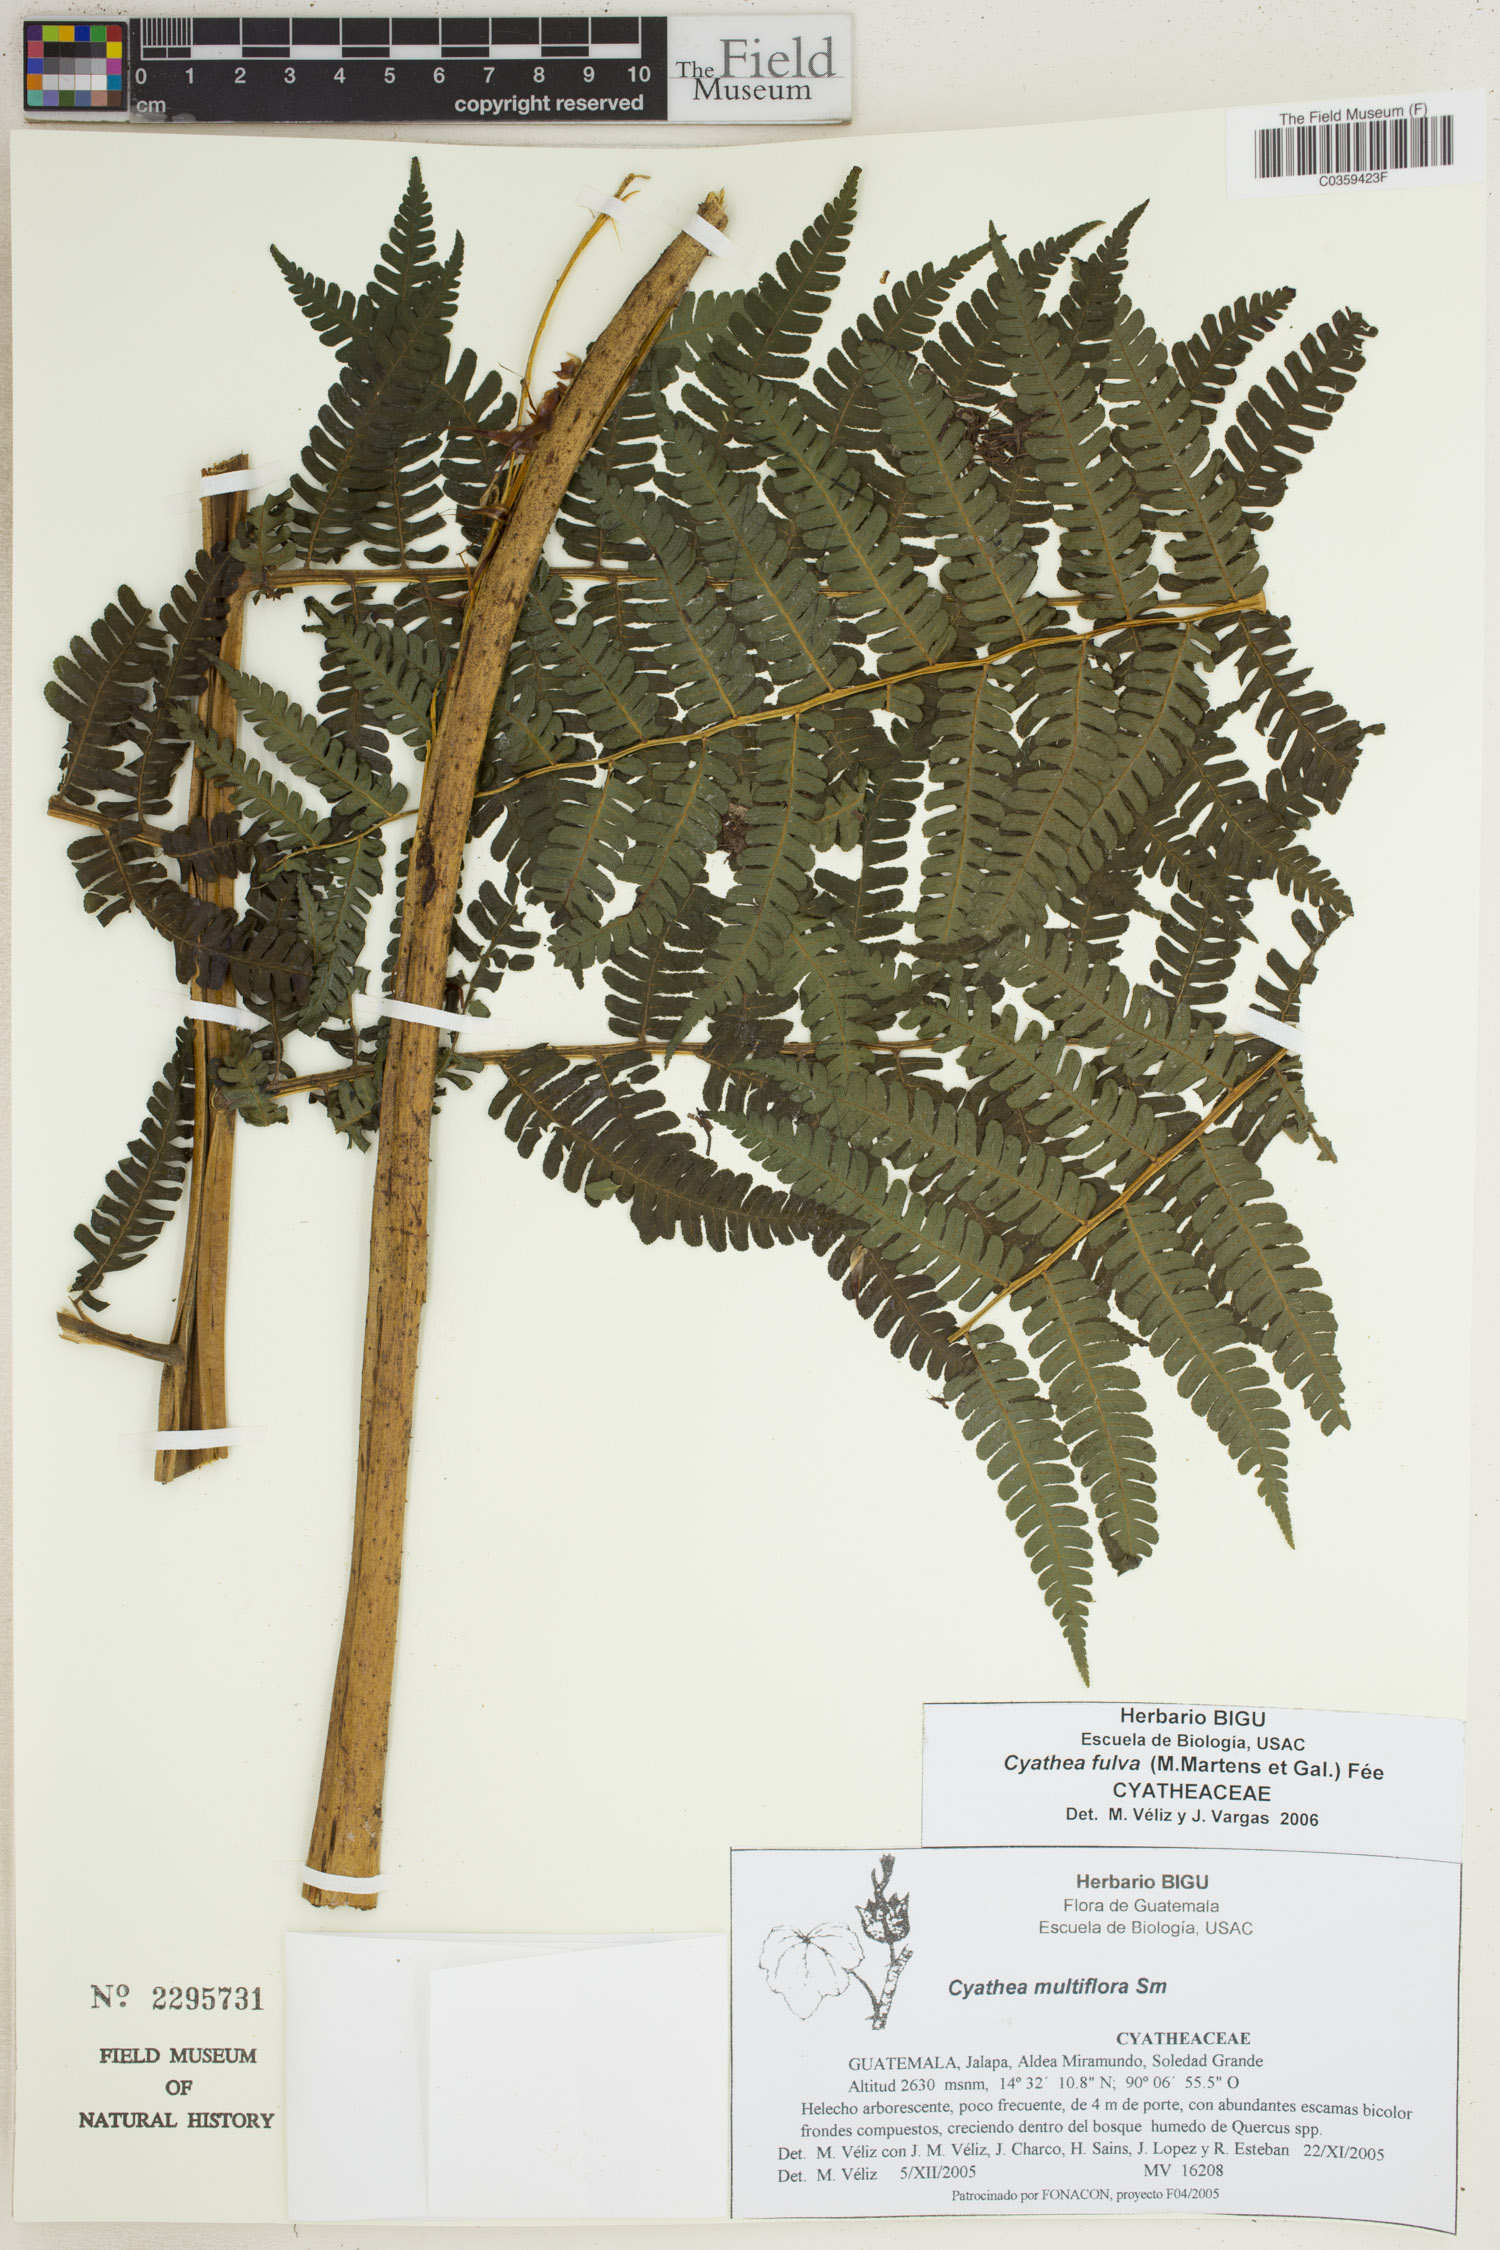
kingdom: Plantae
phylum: Tracheophyta
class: Polypodiopsida
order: Cyatheales
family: Cyatheaceae
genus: Cyathea
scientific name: Cyathea bicrenata
